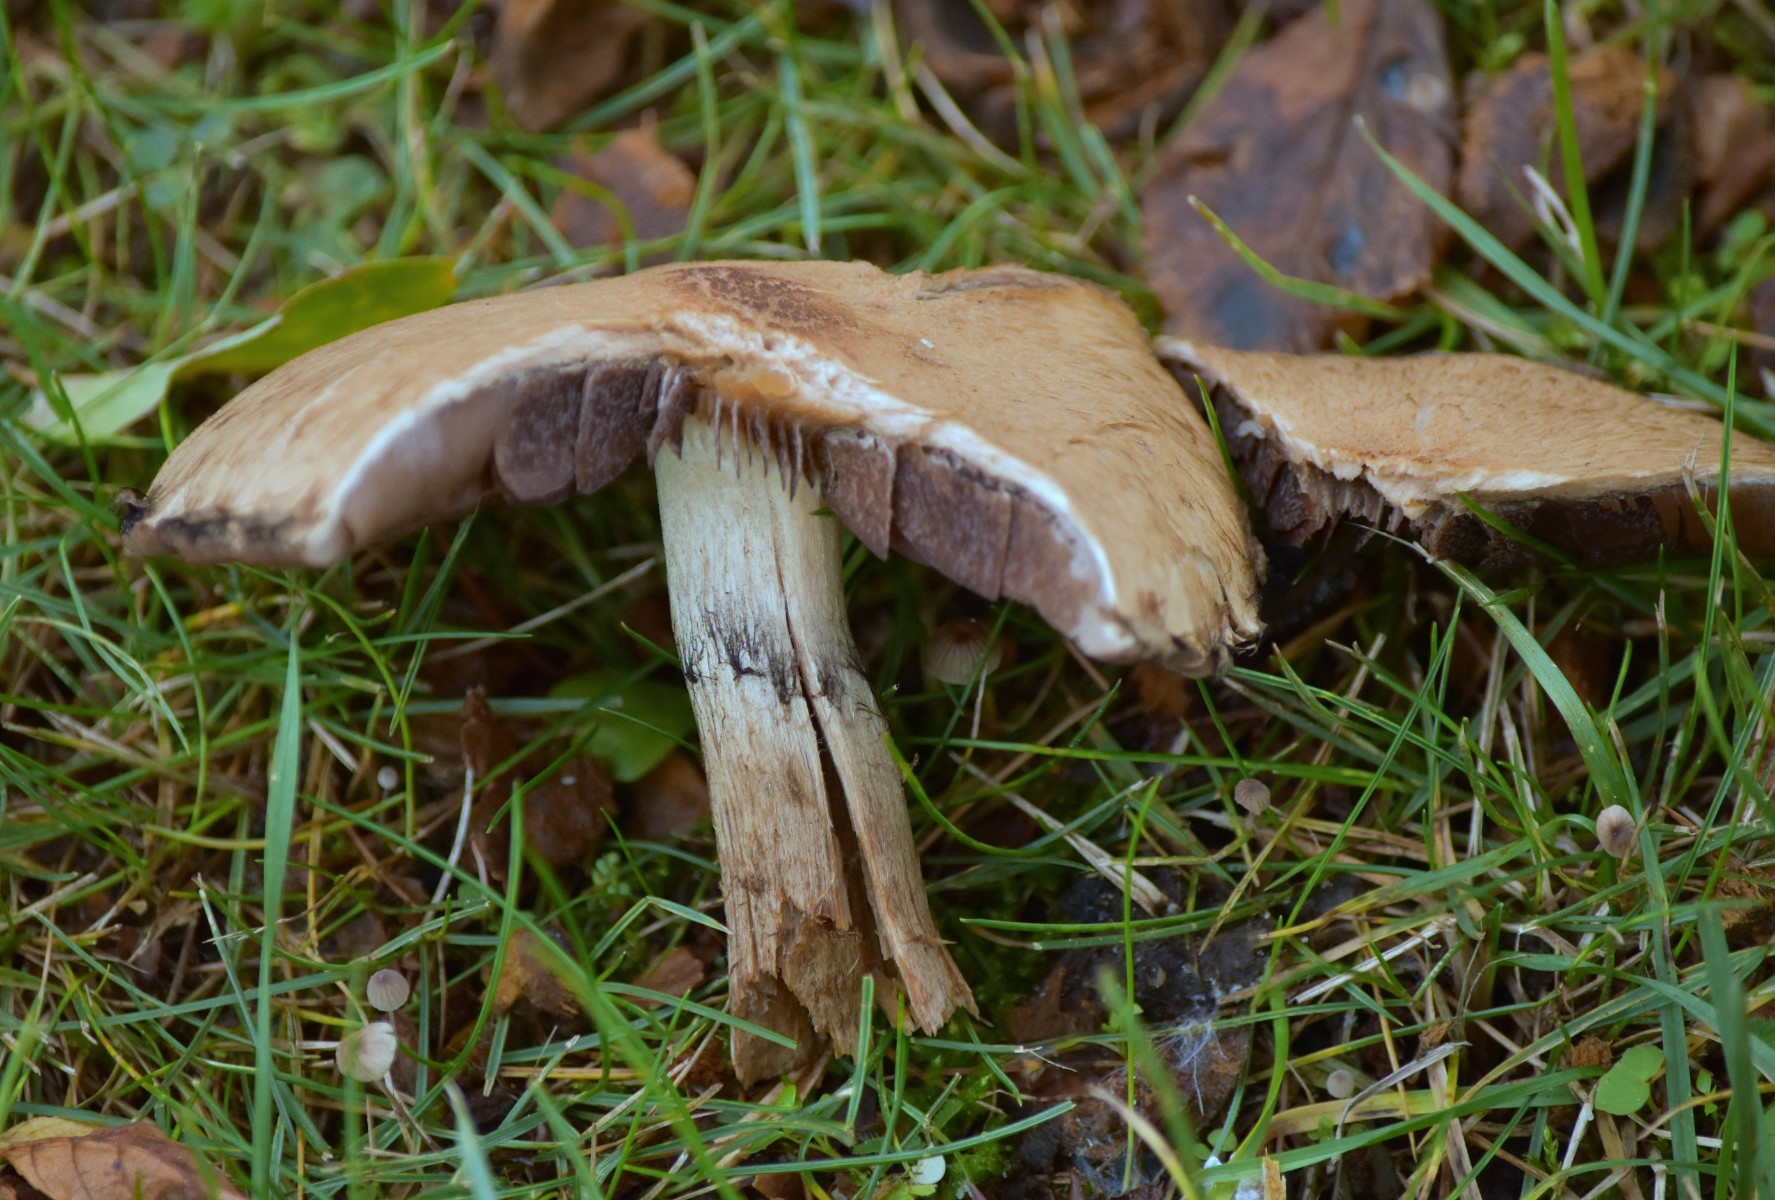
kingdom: Fungi
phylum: Basidiomycota
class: Agaricomycetes
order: Agaricales
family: Psathyrellaceae
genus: Lacrymaria
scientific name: Lacrymaria lacrymabunda
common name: grædende mørkhat
